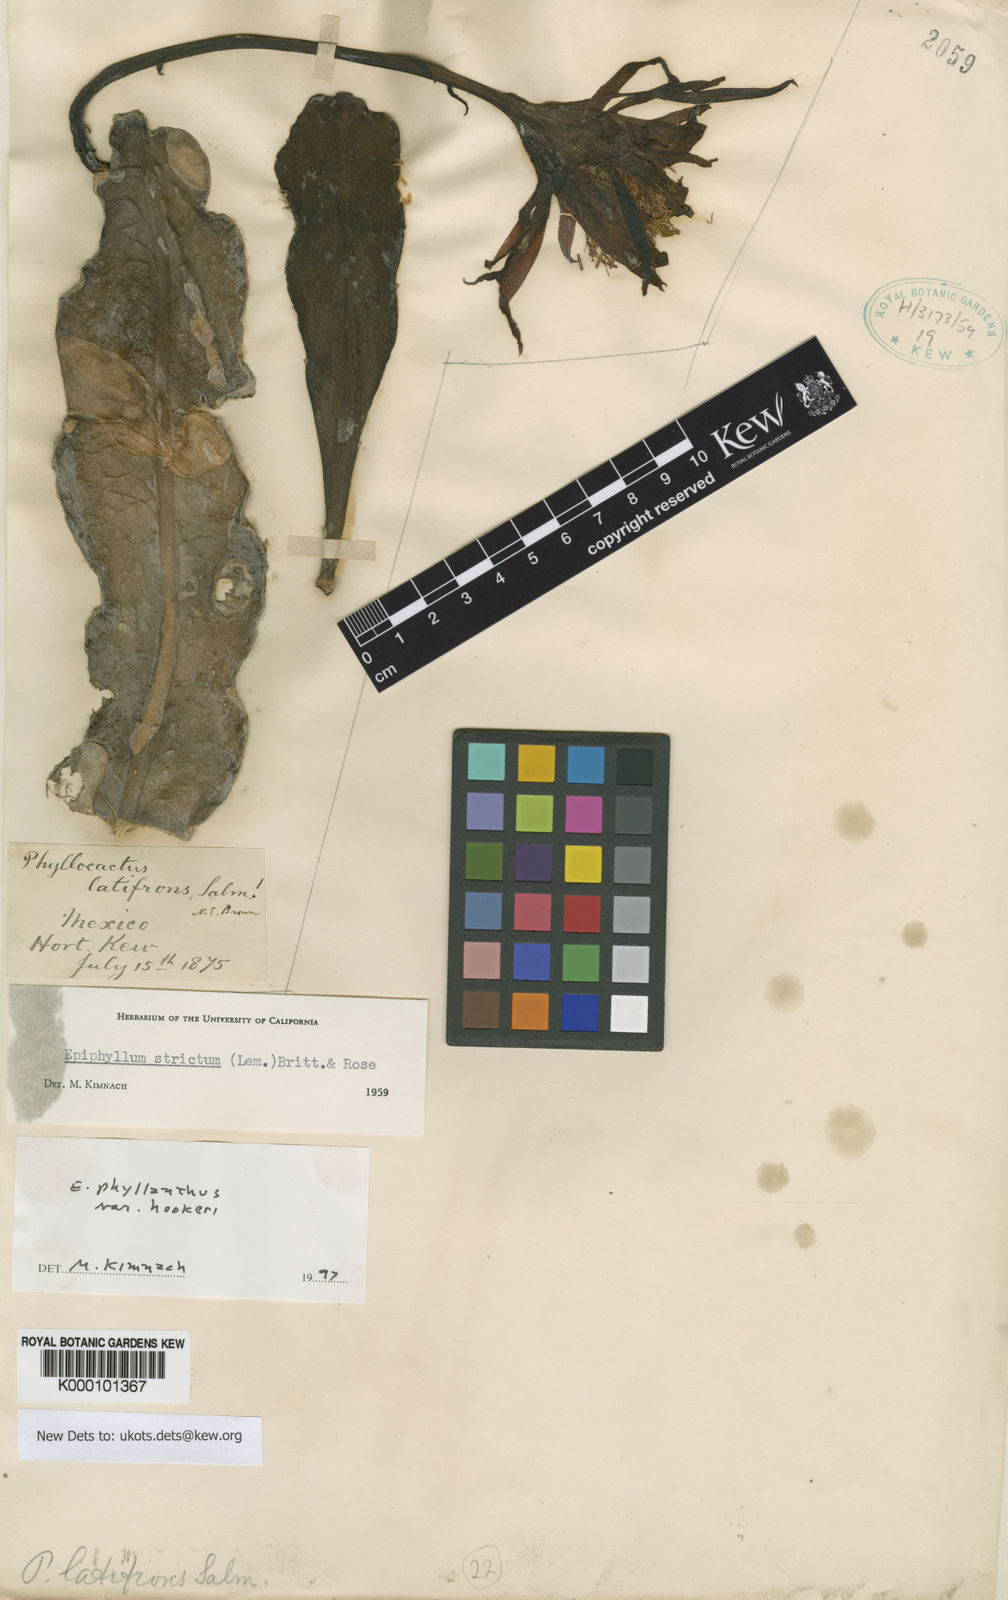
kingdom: Plantae
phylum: Tracheophyta
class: Magnoliopsida
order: Caryophyllales
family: Cactaceae
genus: Epiphyllum
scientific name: Epiphyllum phyllanthus
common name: Climbing cactus
